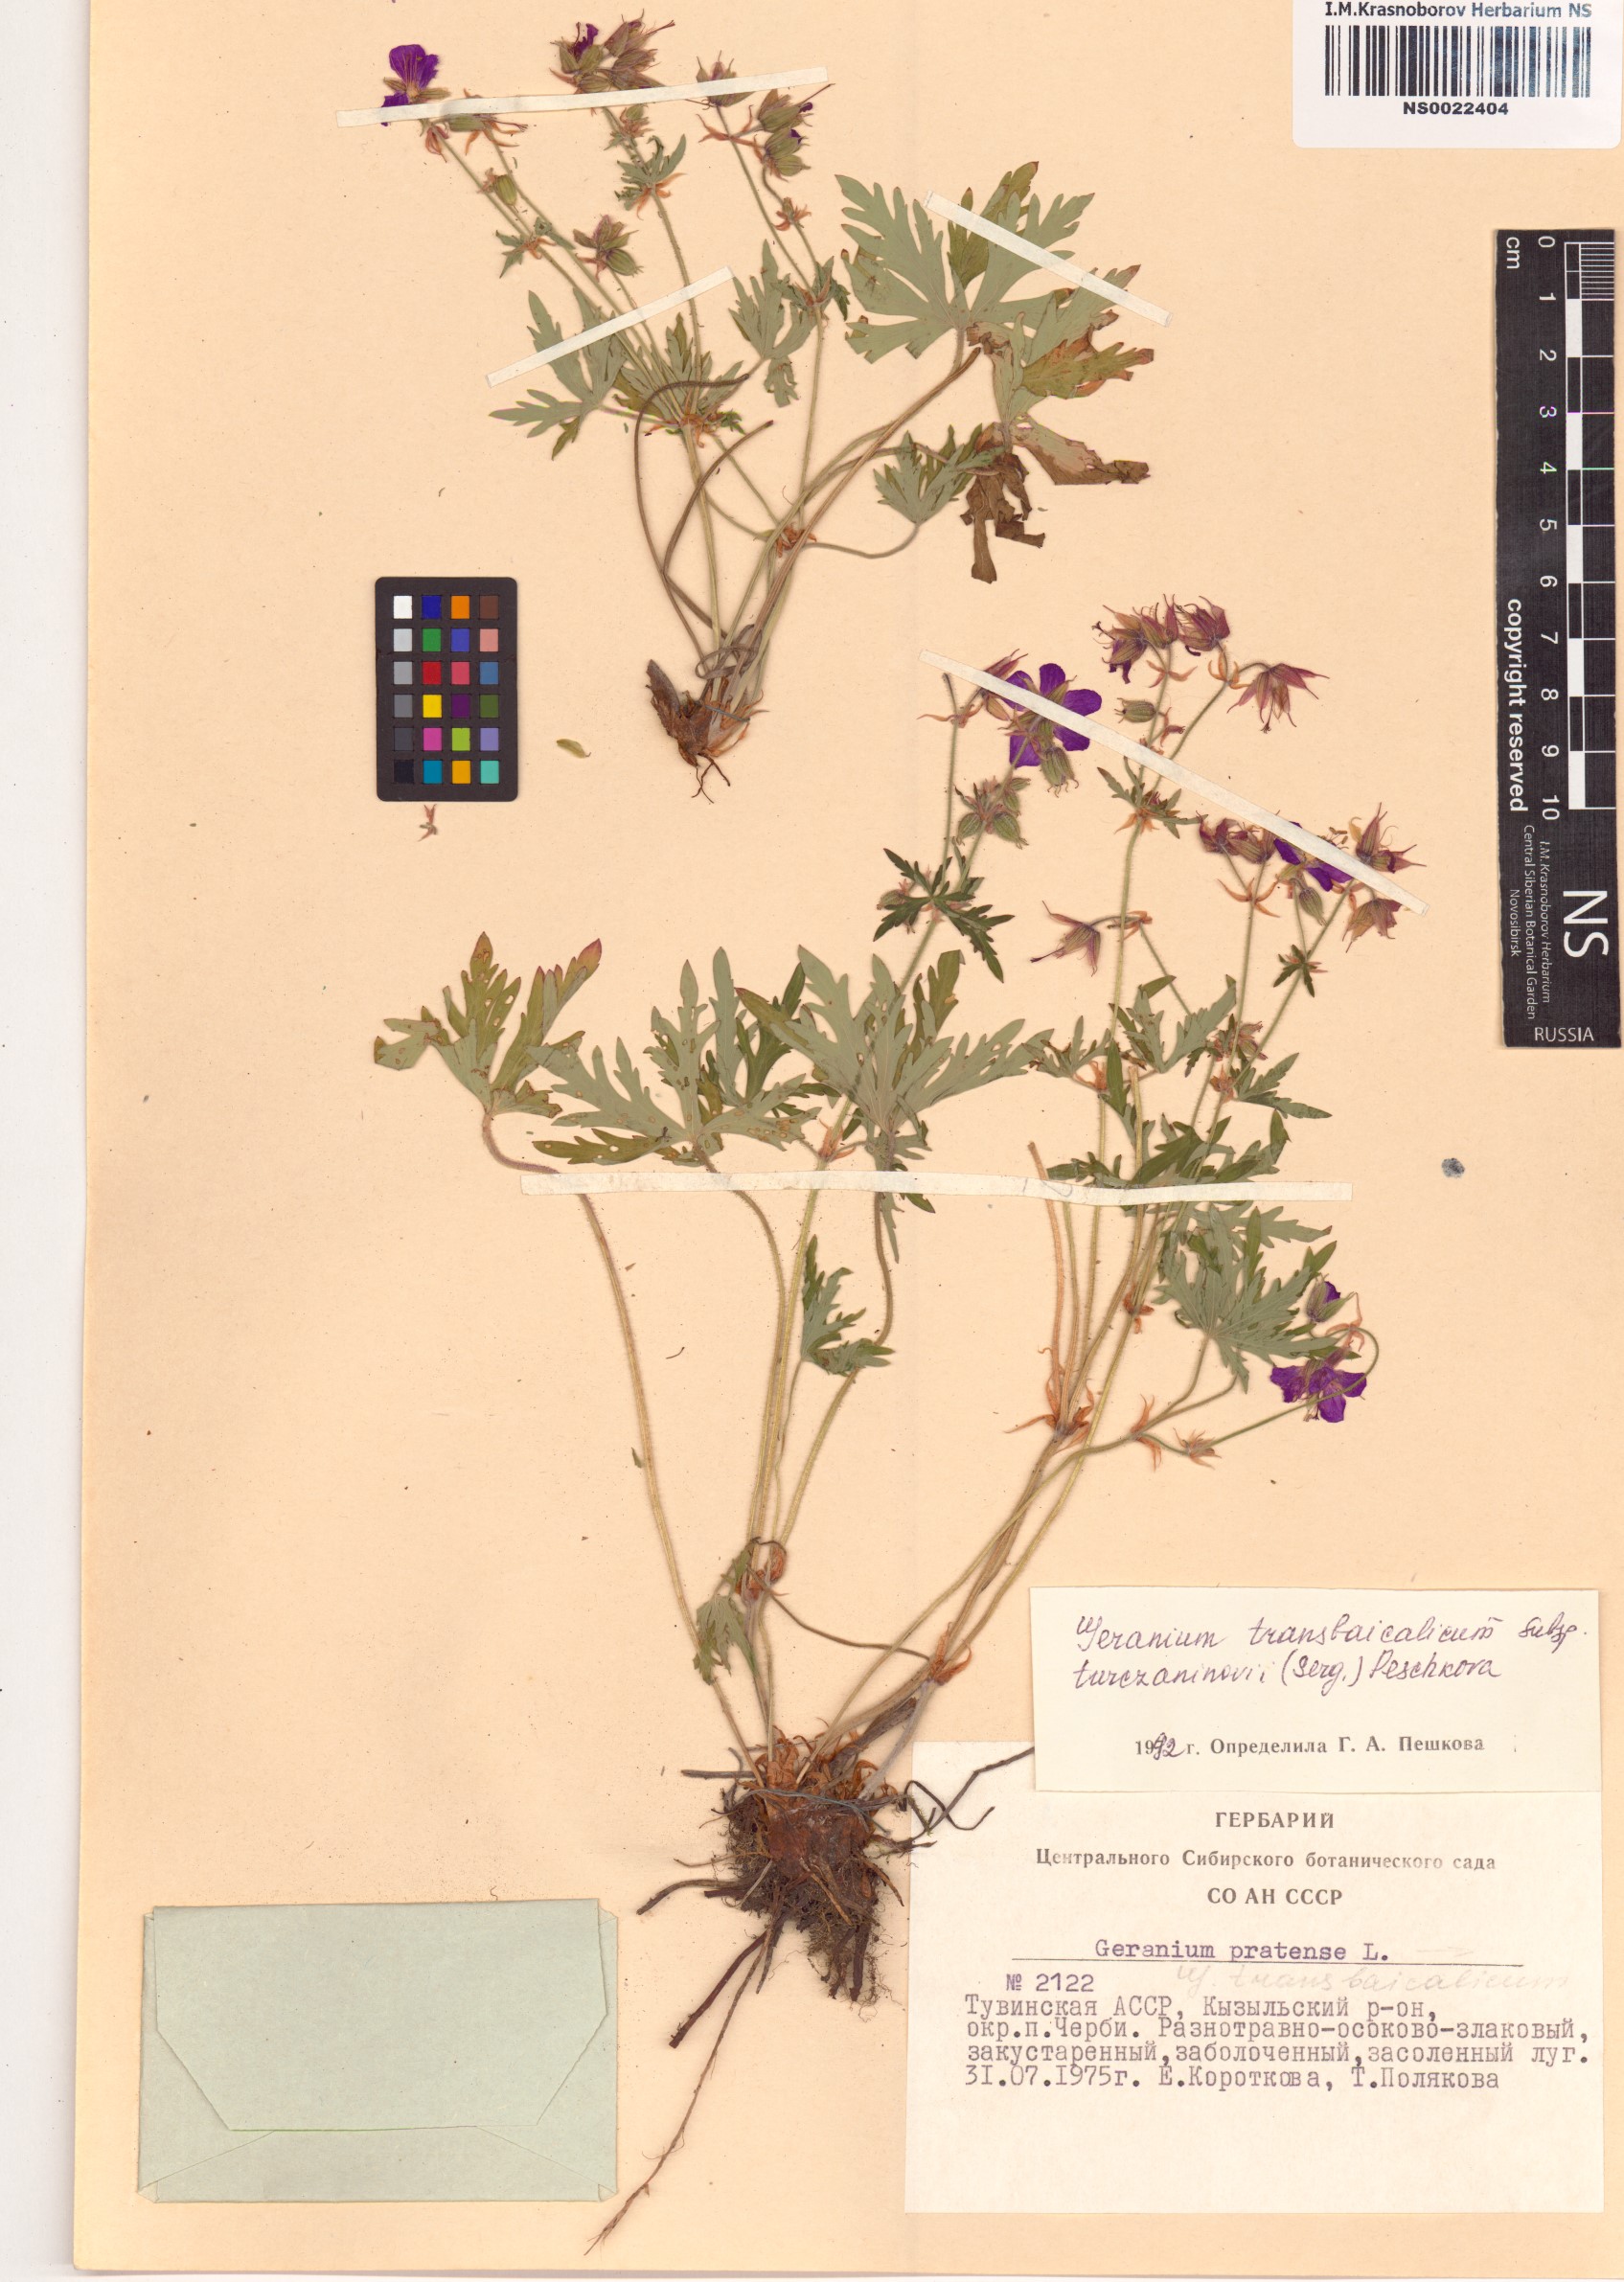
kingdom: Plantae
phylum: Tracheophyta
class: Magnoliopsida
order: Geraniales
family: Geraniaceae
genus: Geranium
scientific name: Geranium pratense
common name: Meadow crane's-bill
